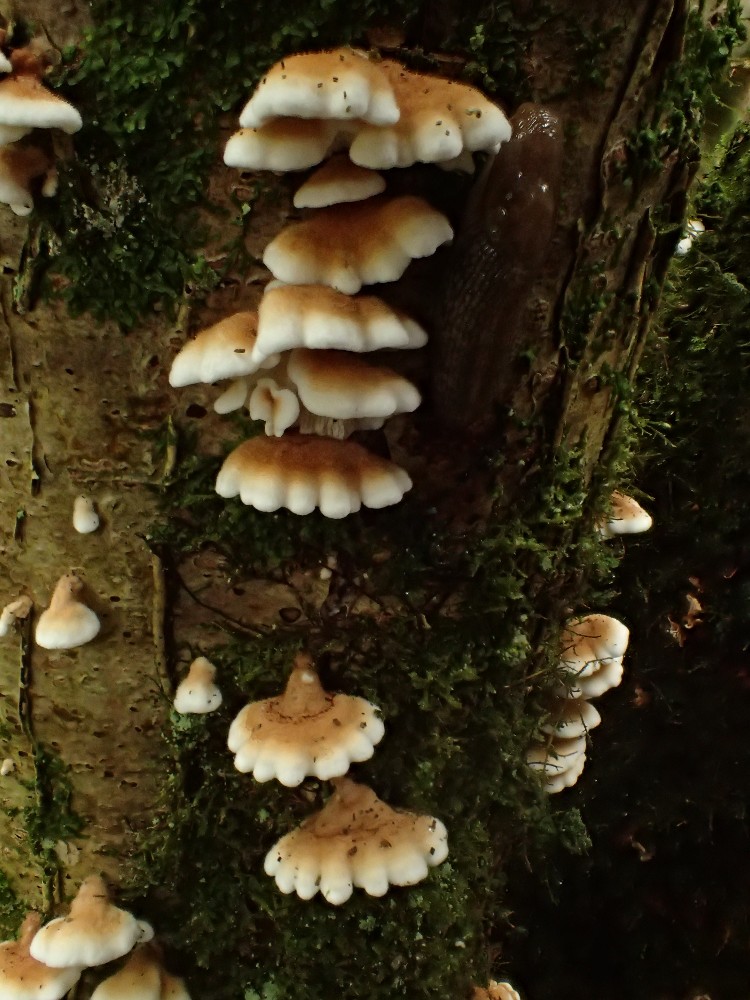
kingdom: Fungi
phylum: Basidiomycota
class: Agaricomycetes
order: Amylocorticiales
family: Amylocorticiaceae
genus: Plicaturopsis
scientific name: Plicaturopsis crispa
